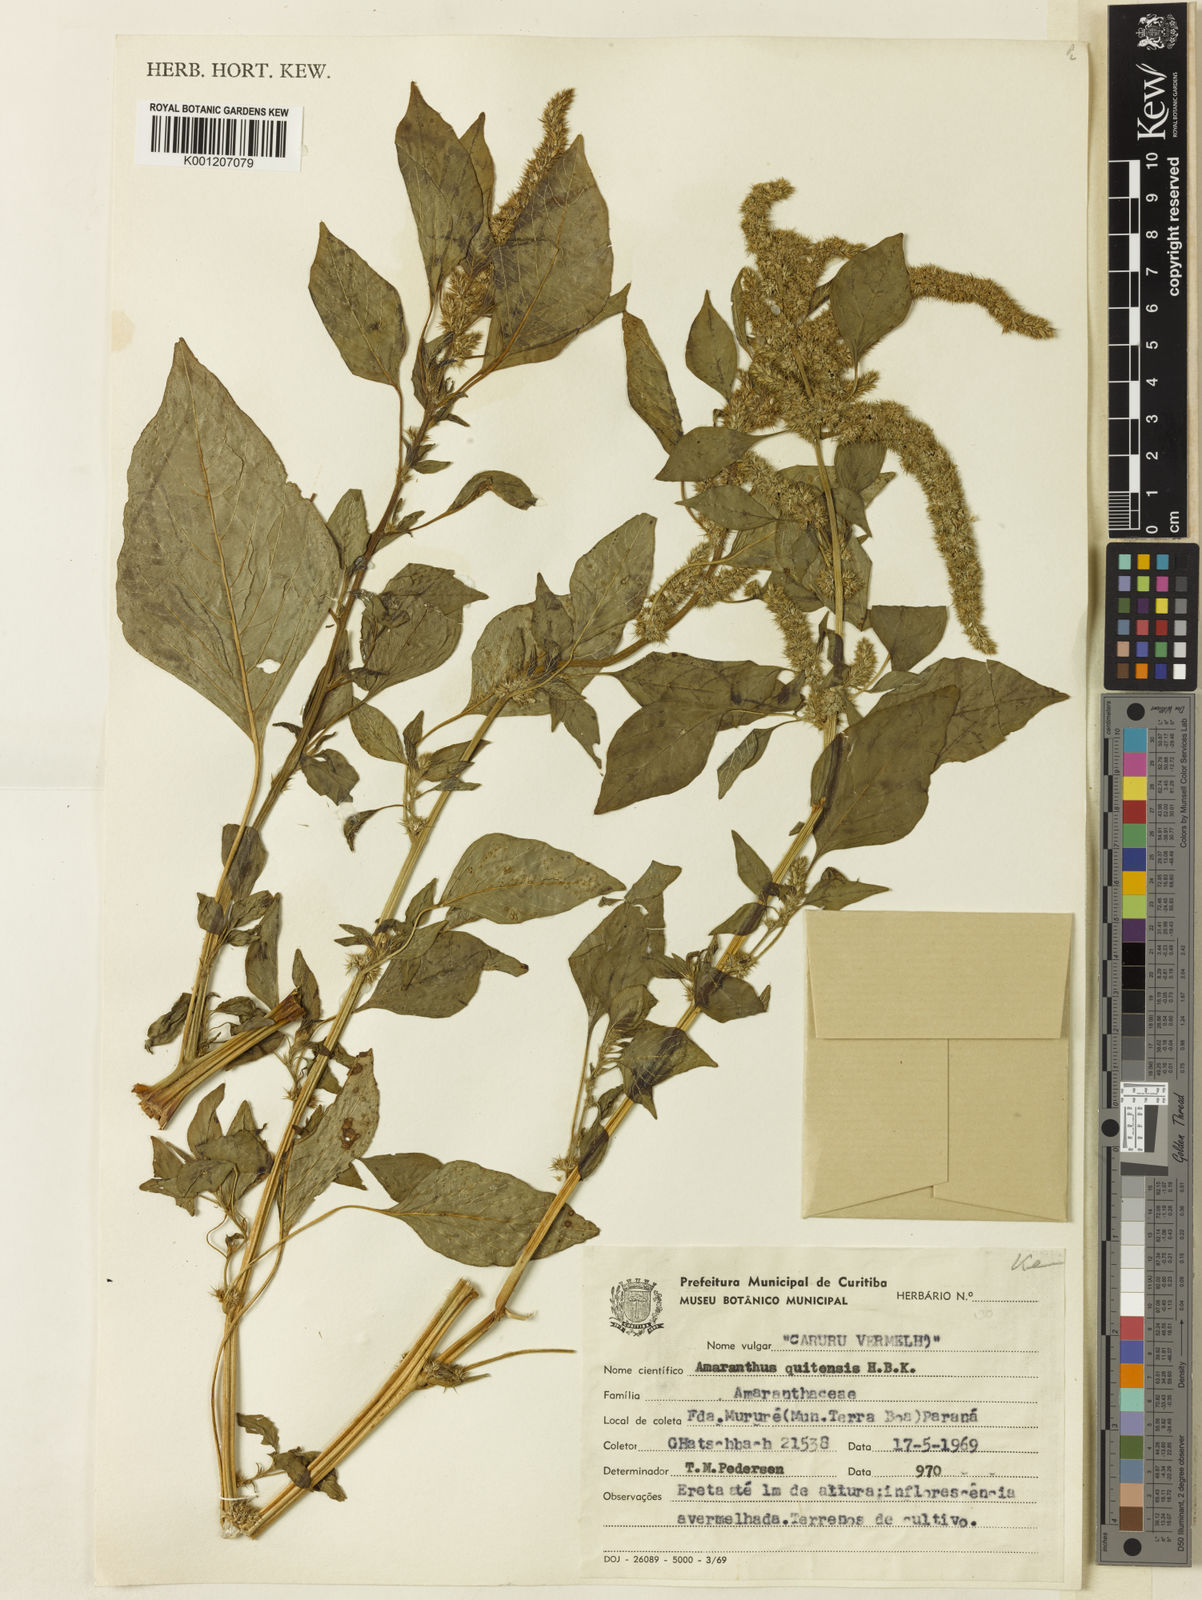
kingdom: Plantae
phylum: Tracheophyta
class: Magnoliopsida
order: Caryophyllales
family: Amaranthaceae
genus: Amaranthus
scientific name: Amaranthus quitensis
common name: Mucronate amaranth
